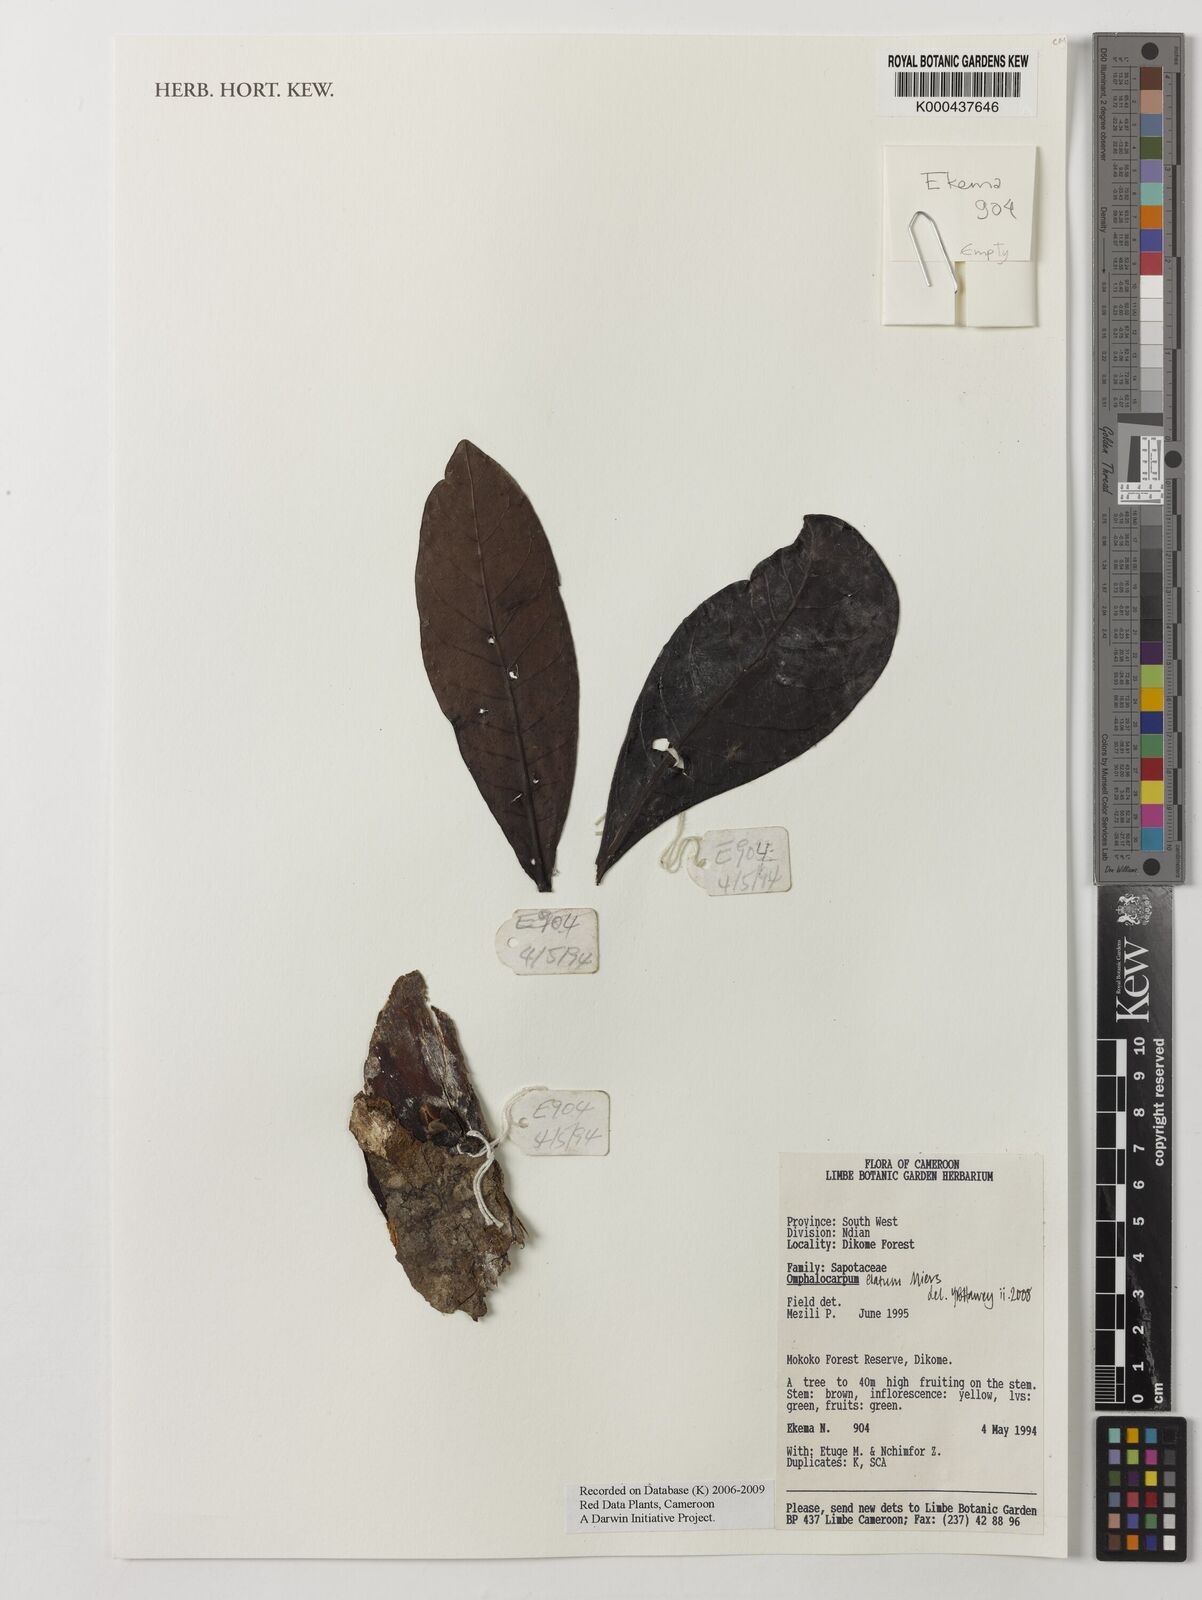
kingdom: Plantae
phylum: Tracheophyta
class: Magnoliopsida
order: Ericales
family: Sapotaceae
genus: Omphalocarpum
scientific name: Omphalocarpum elatum
